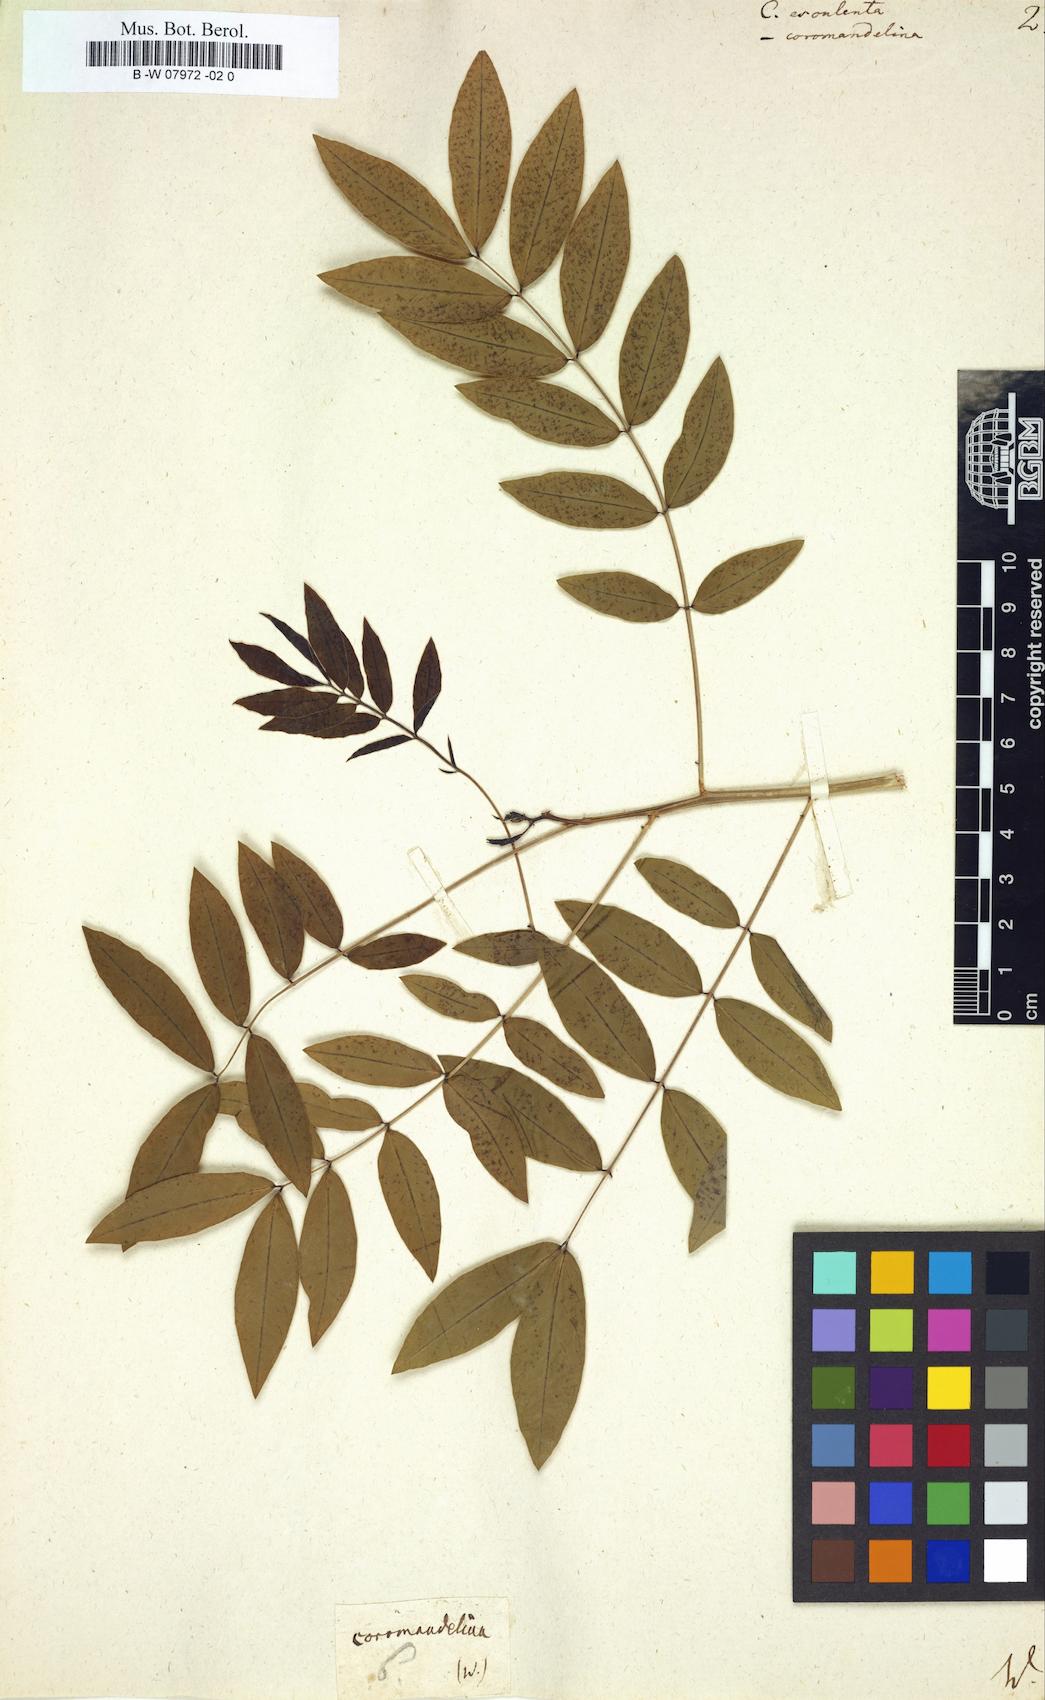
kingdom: Plantae
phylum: Tracheophyta
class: Magnoliopsida
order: Fabales
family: Fabaceae
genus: Senna
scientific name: Senna sophera
